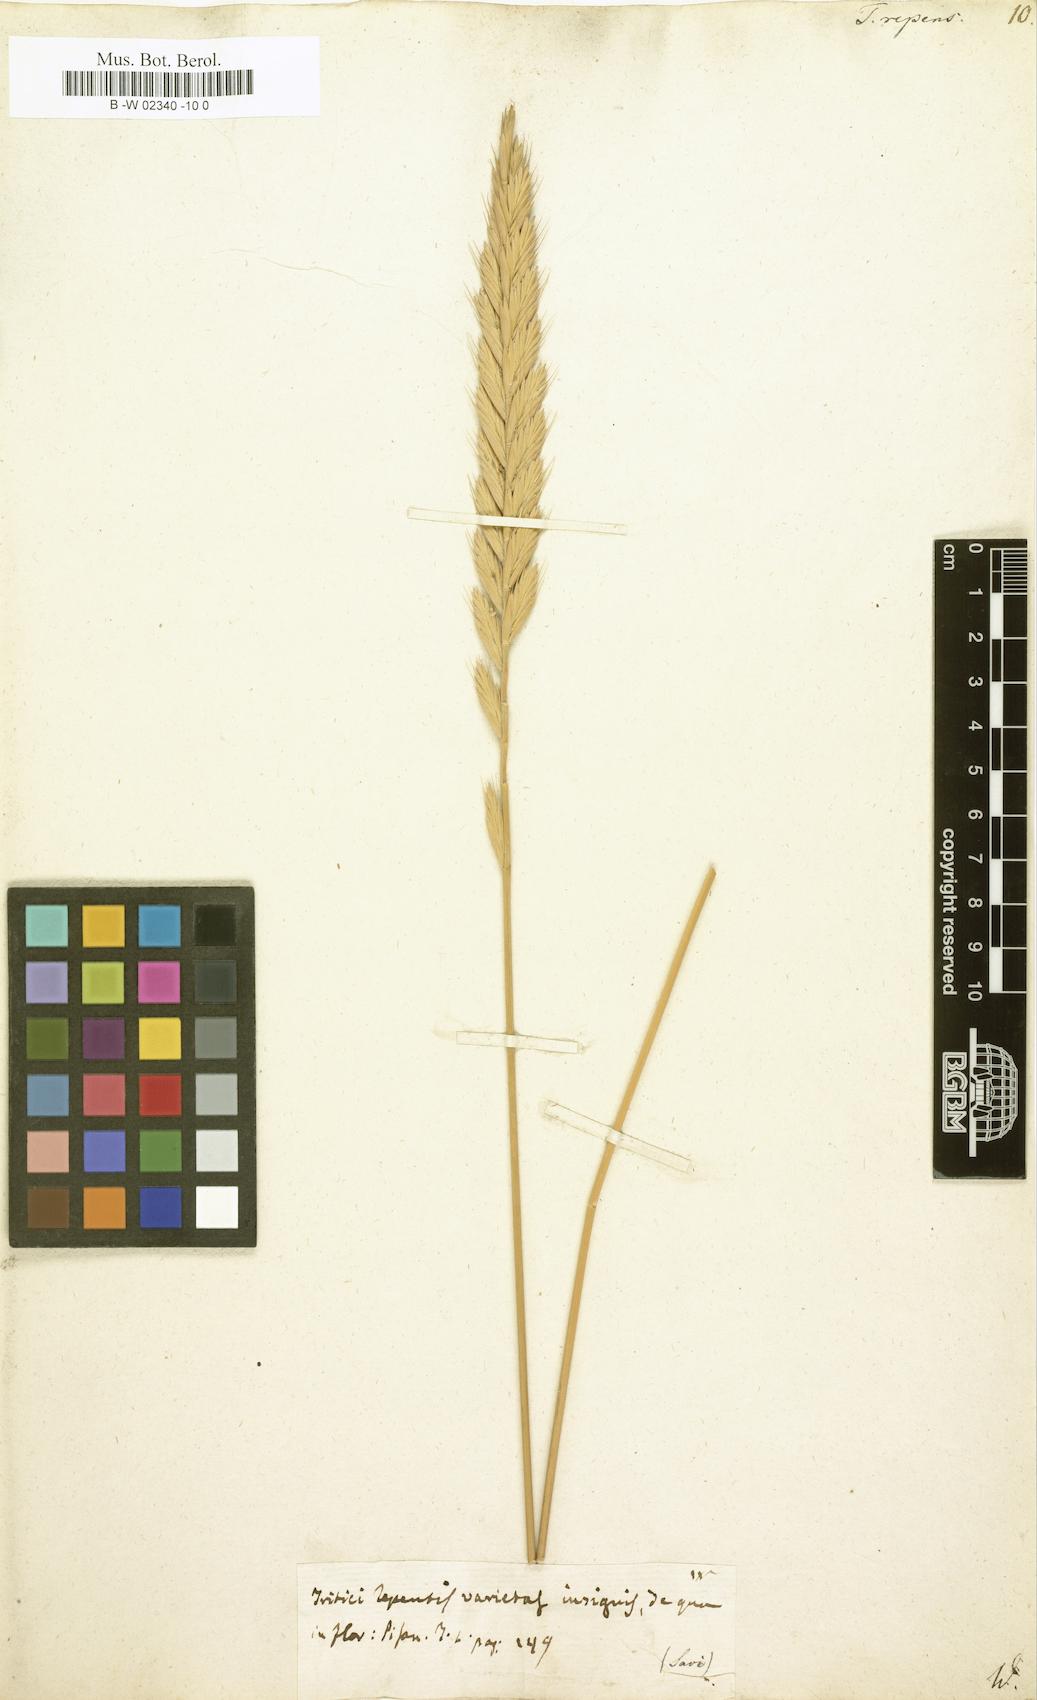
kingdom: Plantae
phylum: Tracheophyta
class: Liliopsida
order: Poales
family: Poaceae
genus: Elymus
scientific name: Elymus repens
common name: Quackgrass
